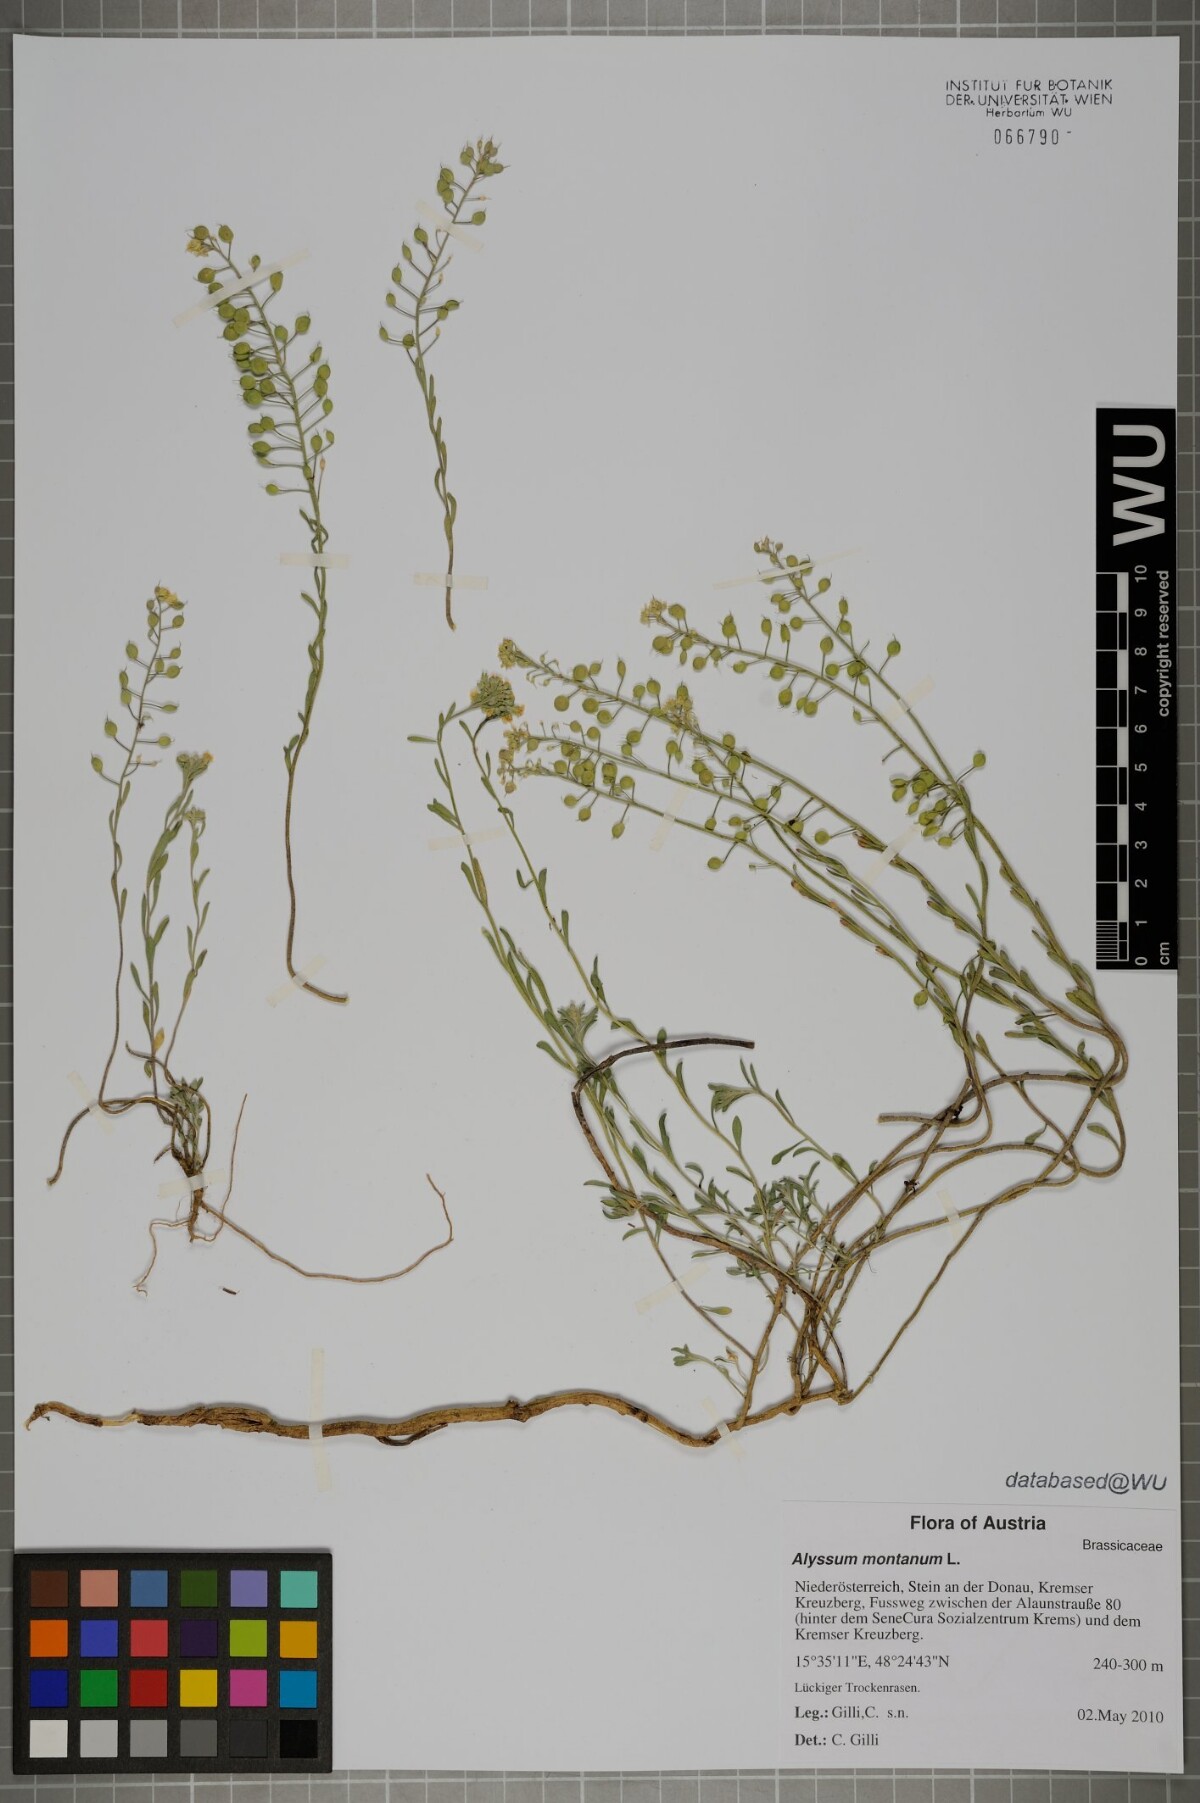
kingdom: Plantae
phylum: Tracheophyta
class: Magnoliopsida
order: Brassicales
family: Brassicaceae
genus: Alyssum
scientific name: Alyssum montanum
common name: Mountain alison
